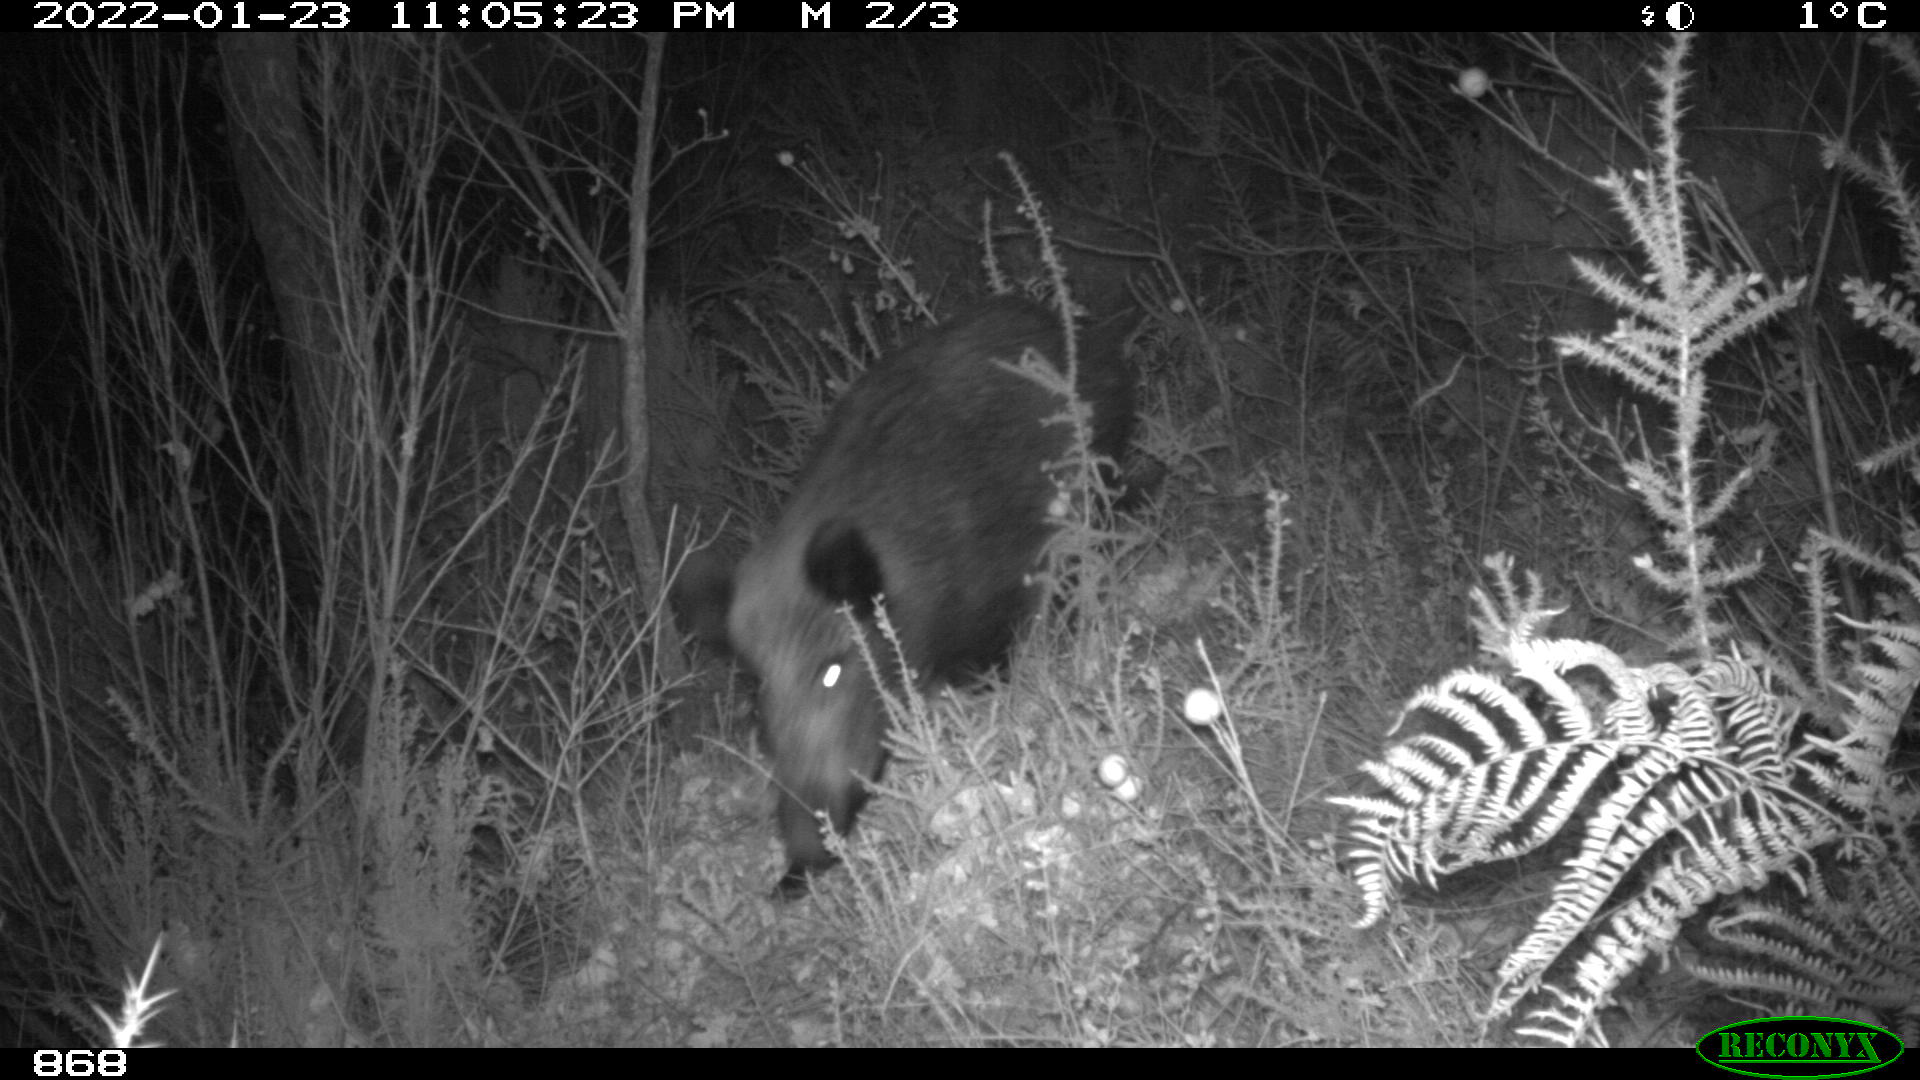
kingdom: Animalia
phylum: Chordata
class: Mammalia
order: Artiodactyla
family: Suidae
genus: Sus
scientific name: Sus scrofa
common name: Wild boar
